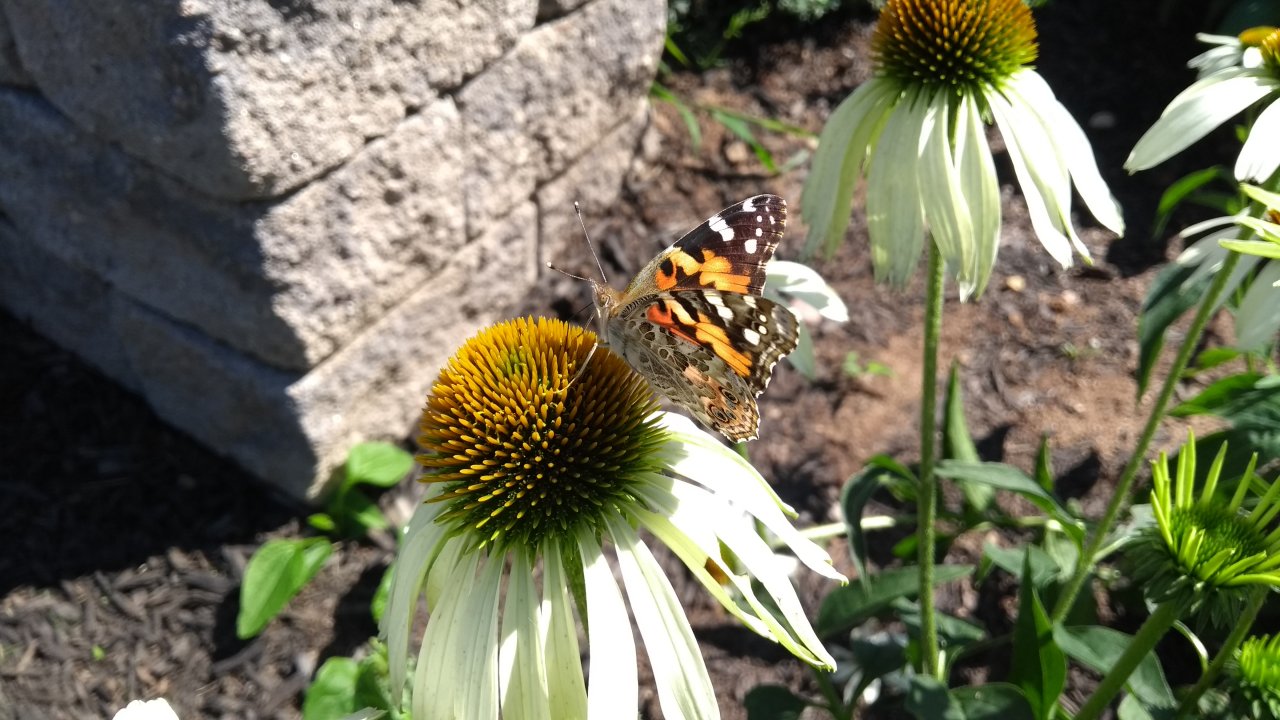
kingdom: Animalia
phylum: Arthropoda
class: Insecta
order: Lepidoptera
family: Nymphalidae
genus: Vanessa
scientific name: Vanessa cardui
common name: Painted Lady
